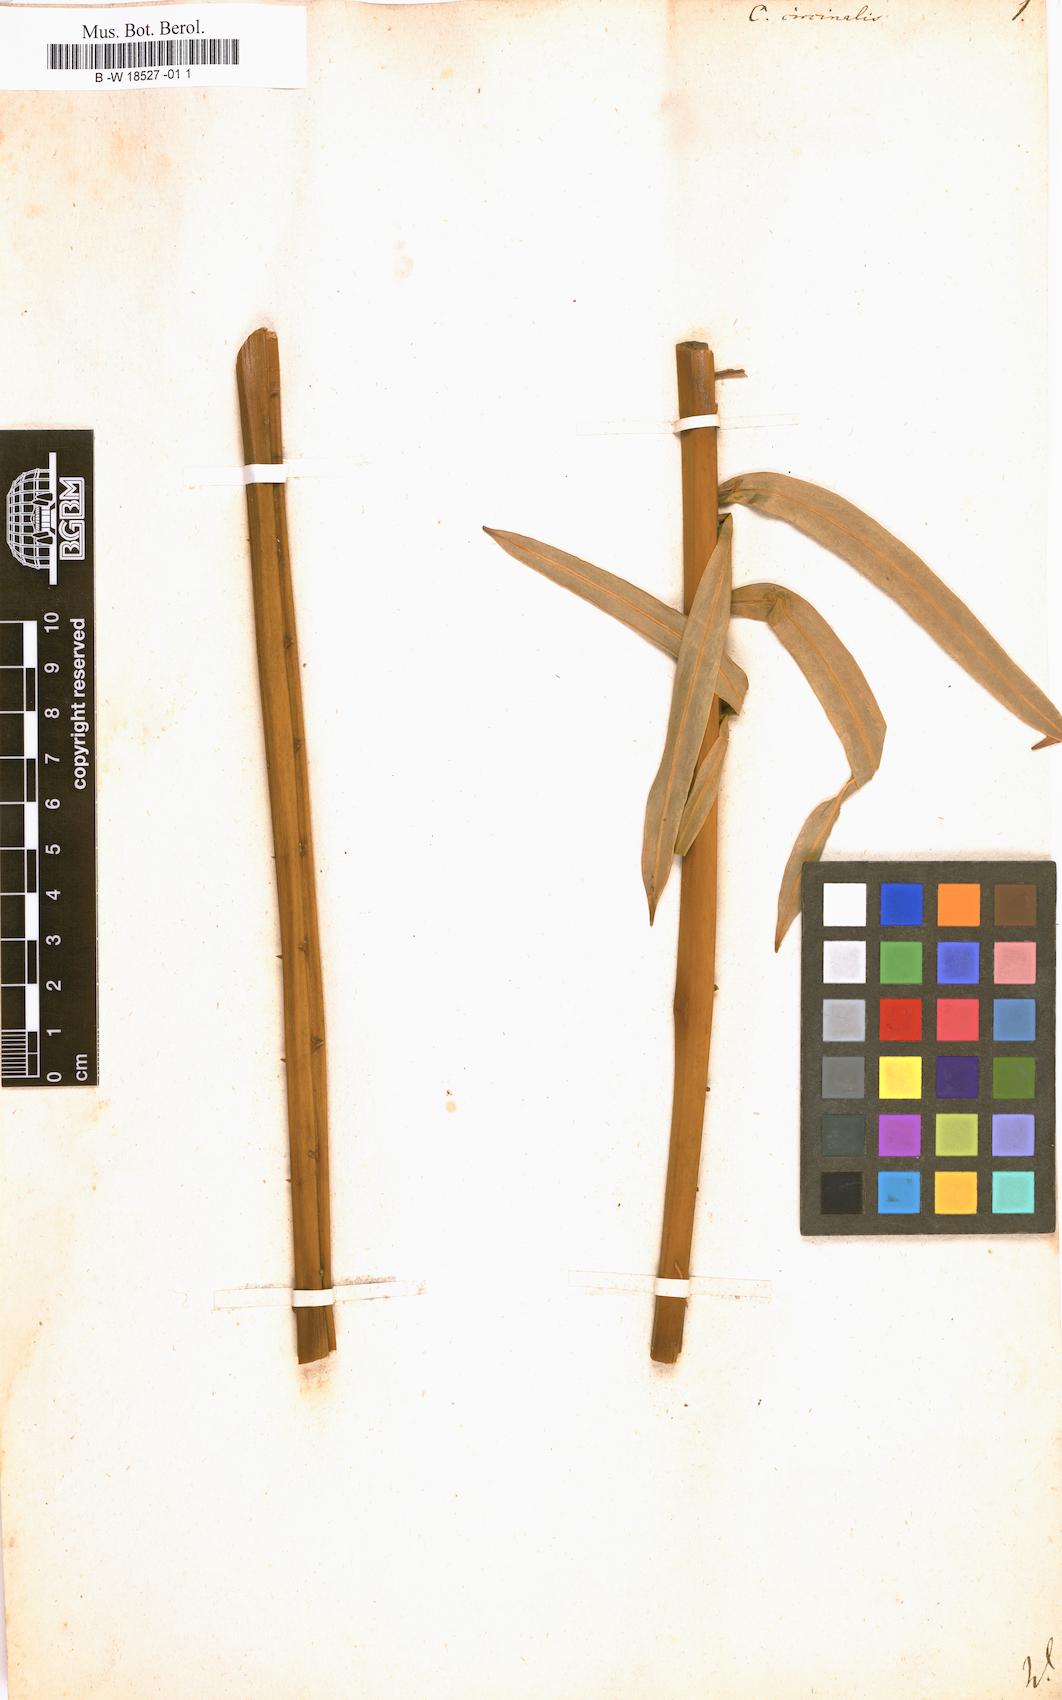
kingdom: Plantae
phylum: Tracheophyta
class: Cycadopsida
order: Cycadales
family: Cycadaceae
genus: Cycas
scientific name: Cycas circinalis
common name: Queen sago
